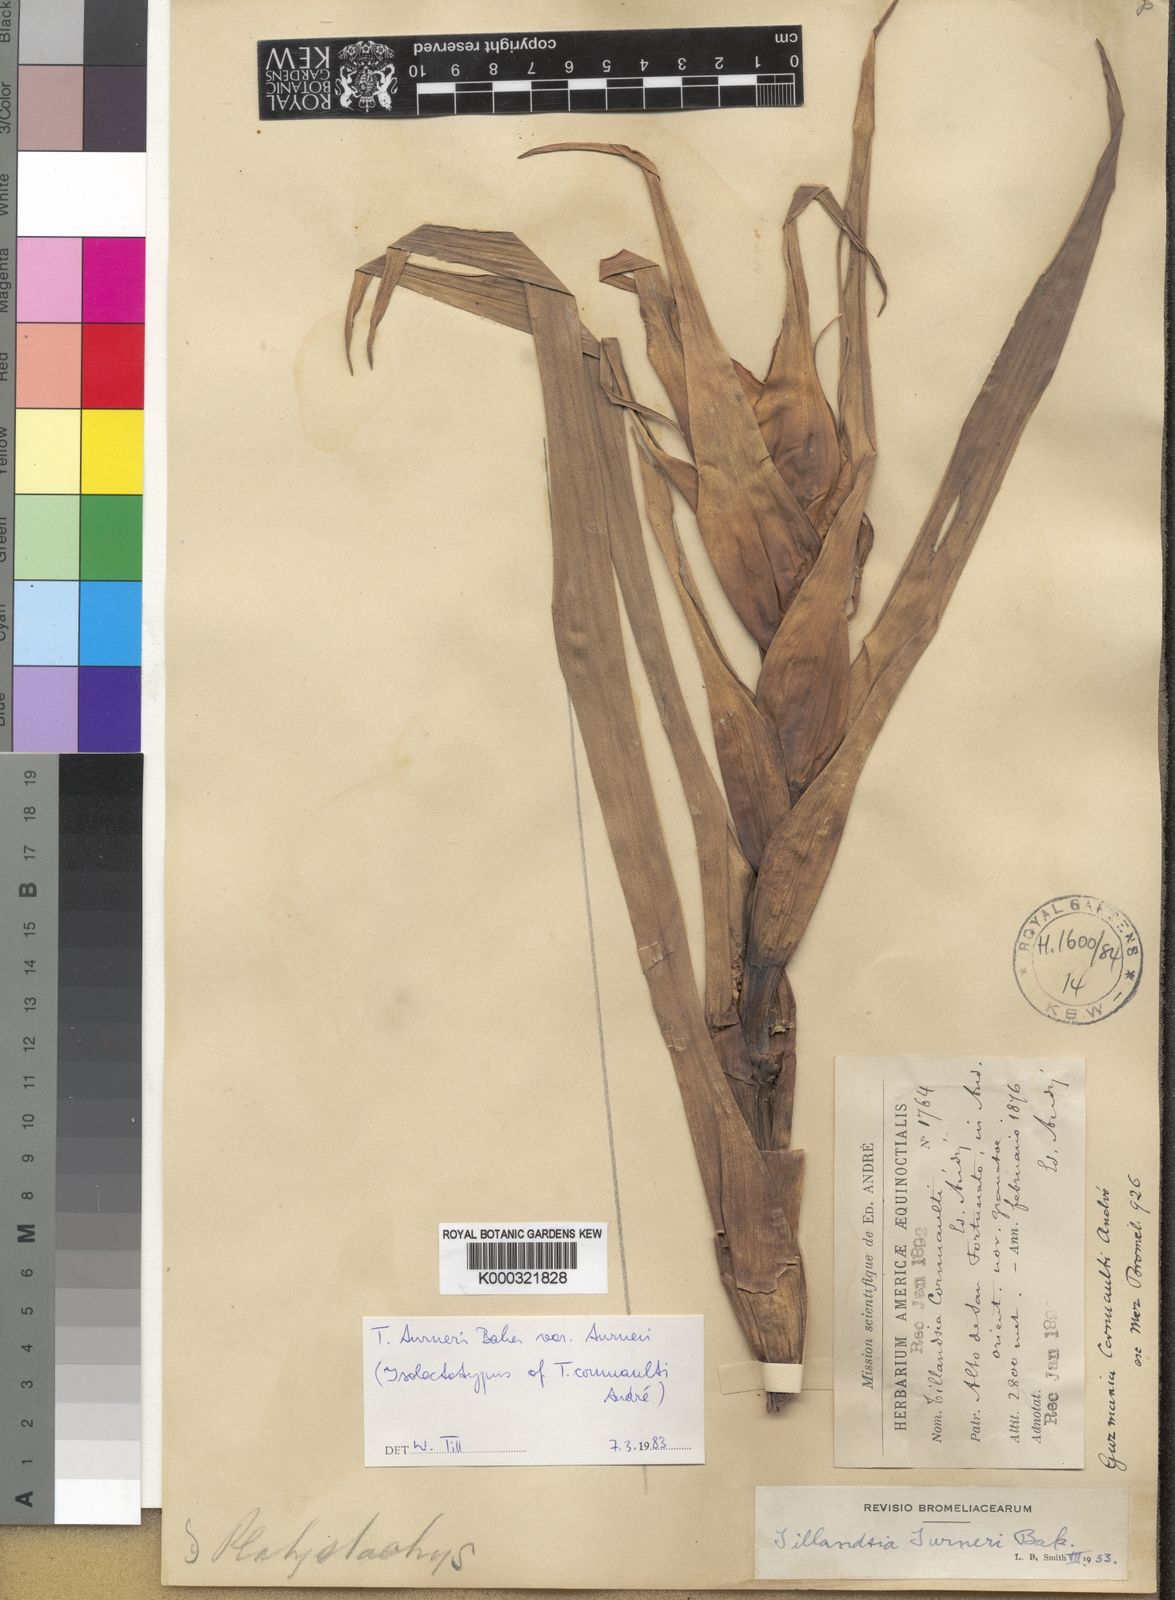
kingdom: Plantae
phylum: Tracheophyta
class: Liliopsida
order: Poales
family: Bromeliaceae
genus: Tillandsia
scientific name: Tillandsia turneri
